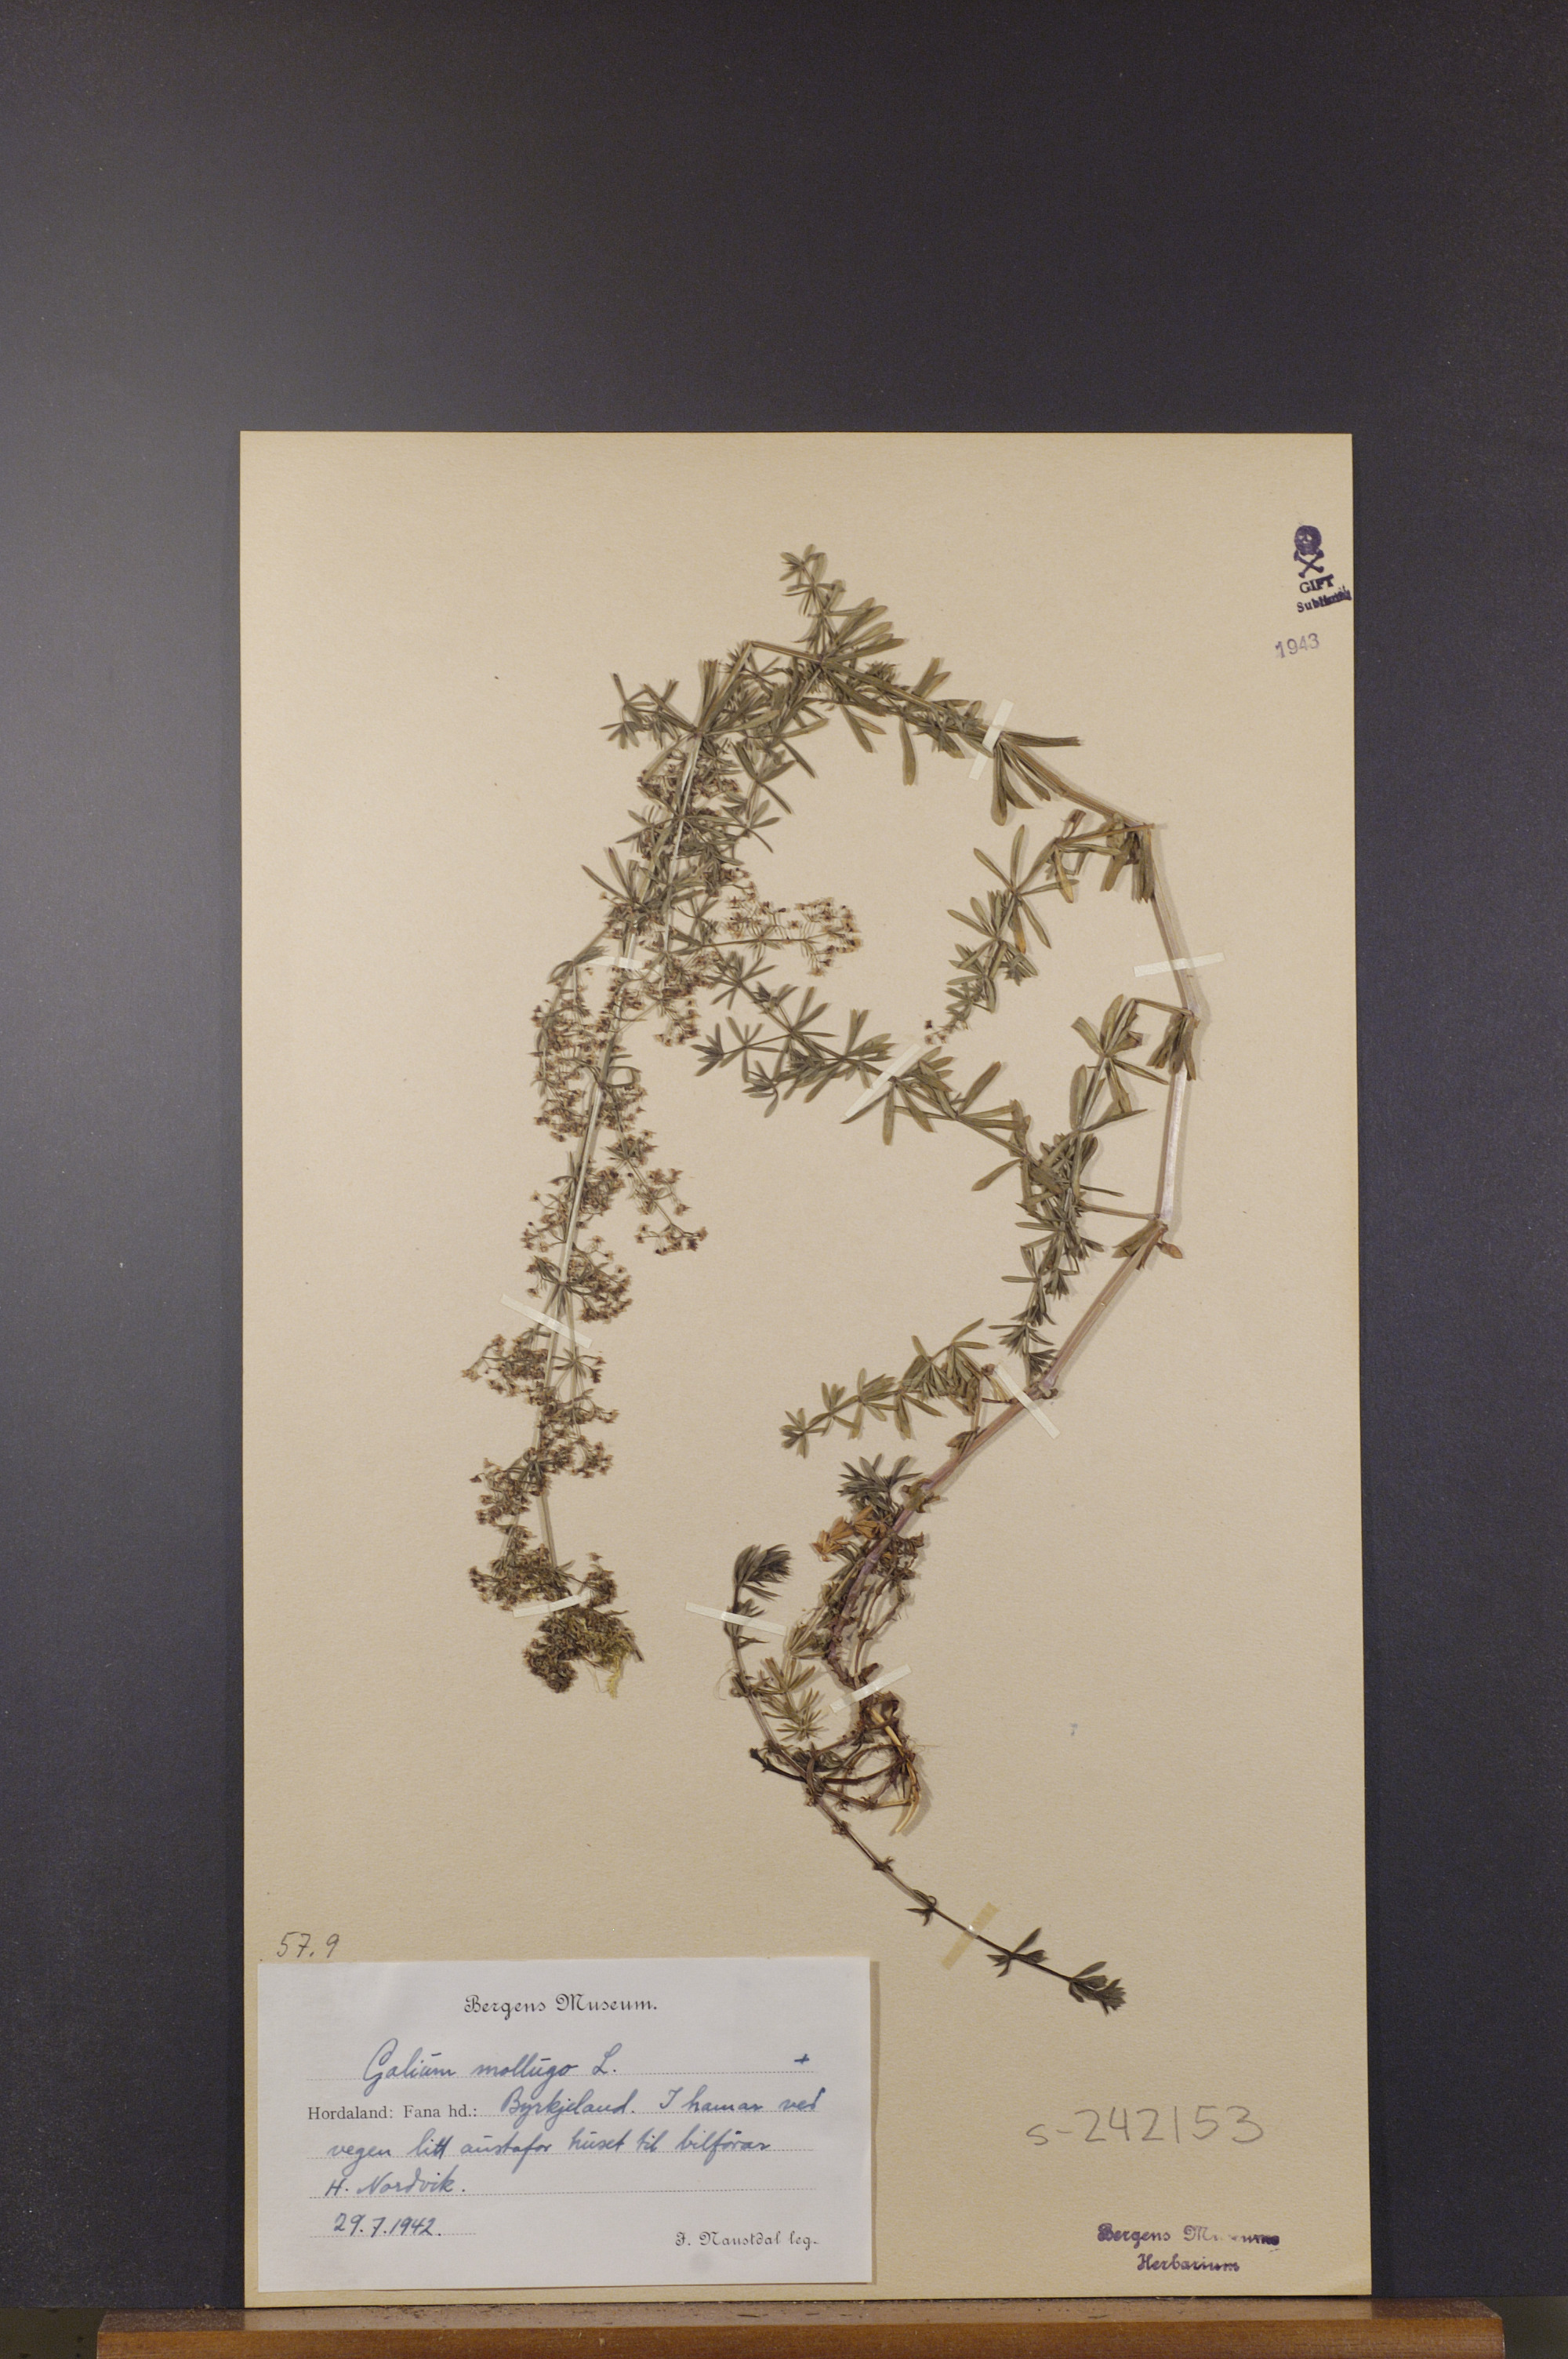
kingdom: Plantae
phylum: Tracheophyta
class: Magnoliopsida
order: Gentianales
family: Rubiaceae
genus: Galium
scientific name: Galium mollugo
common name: Hedge bedstraw
